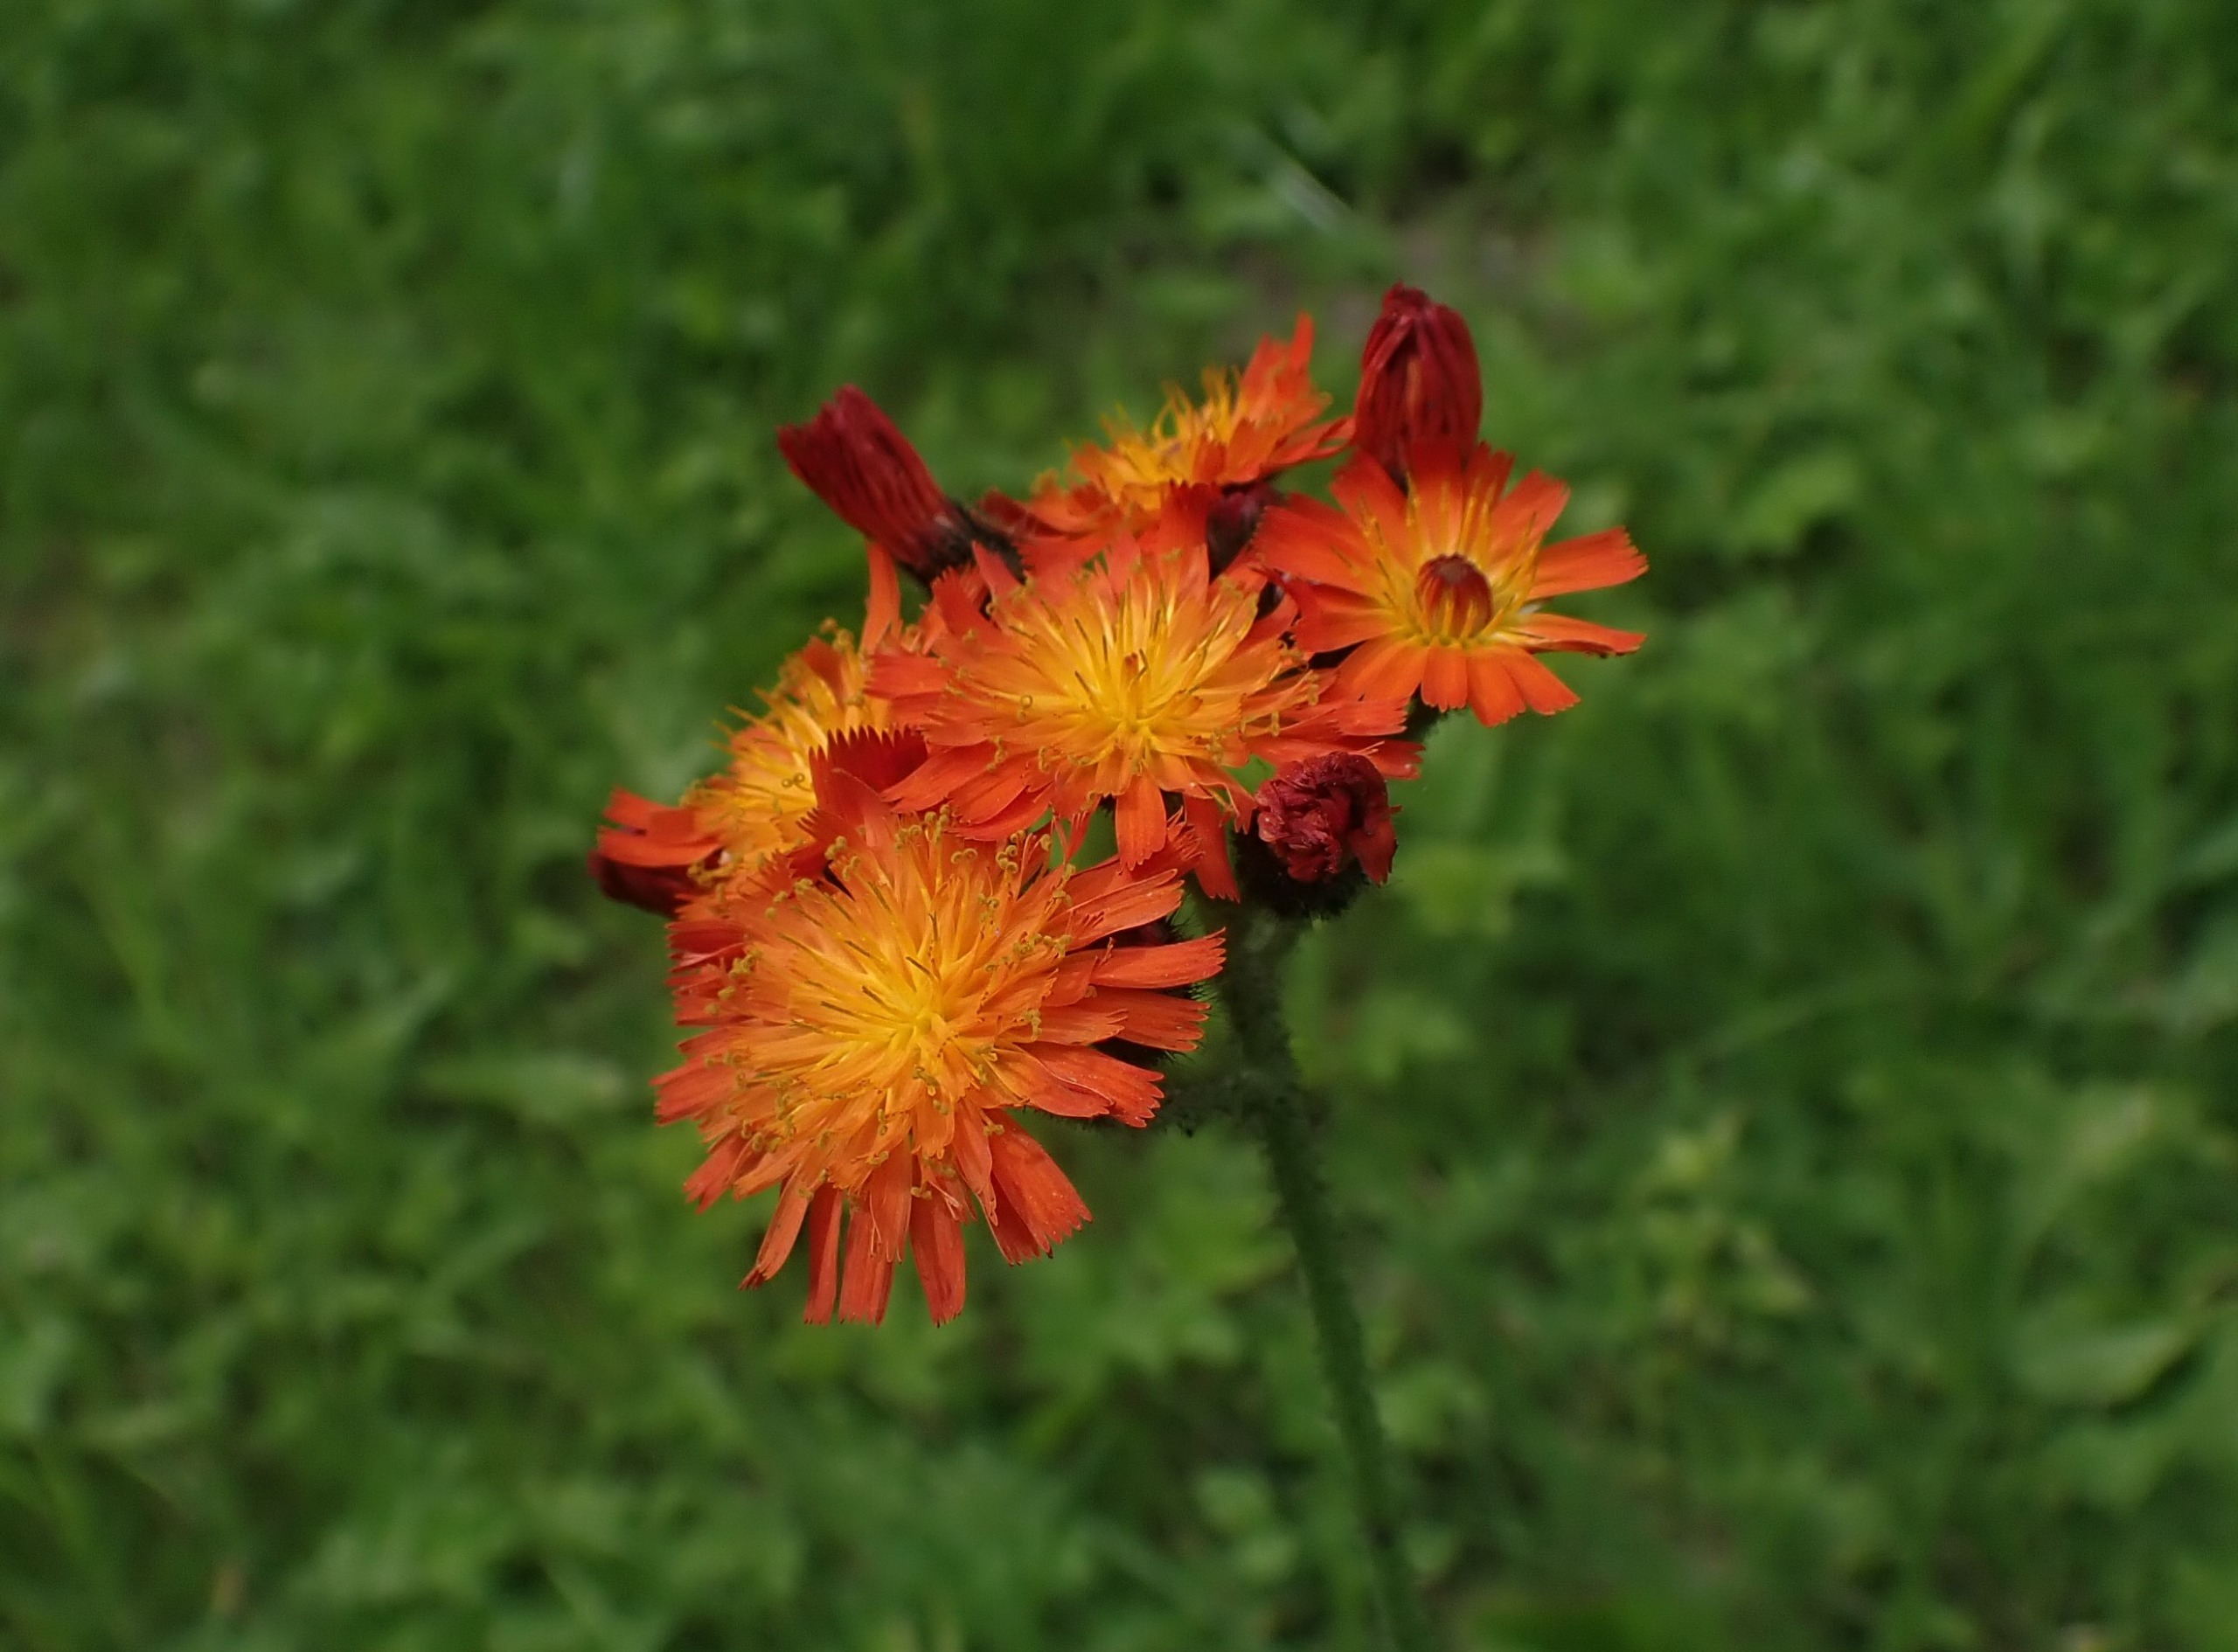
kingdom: Plantae
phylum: Tracheophyta
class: Magnoliopsida
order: Asterales
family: Asteraceae
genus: Pilosella
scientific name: Pilosella aurantiaca
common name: Pomerans-høgeurt
